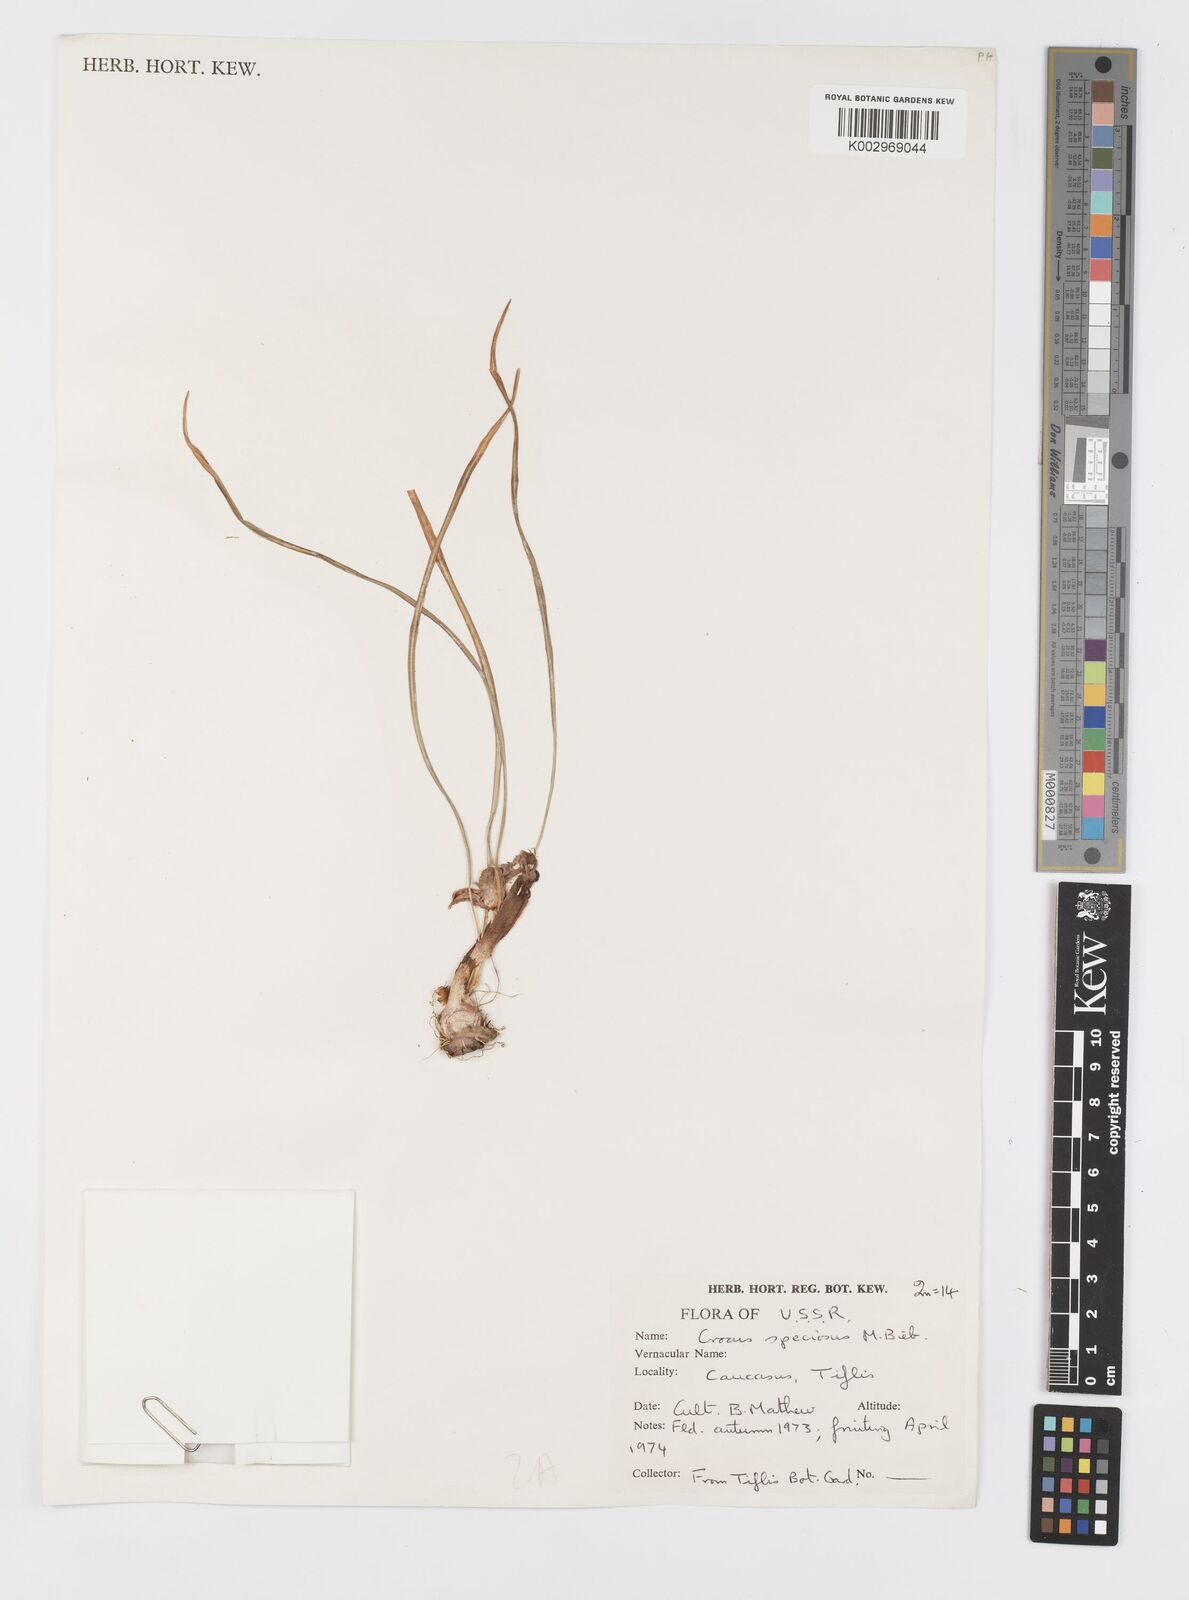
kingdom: Plantae
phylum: Tracheophyta
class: Liliopsida
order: Asparagales
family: Iridaceae
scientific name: Iridaceae
